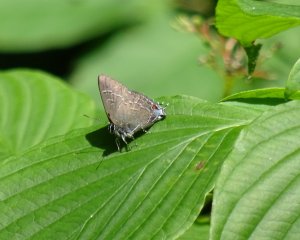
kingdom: Animalia
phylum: Arthropoda
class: Insecta
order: Lepidoptera
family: Lycaenidae
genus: Satyrium
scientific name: Satyrium calanus
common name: Banded Hairstreak
